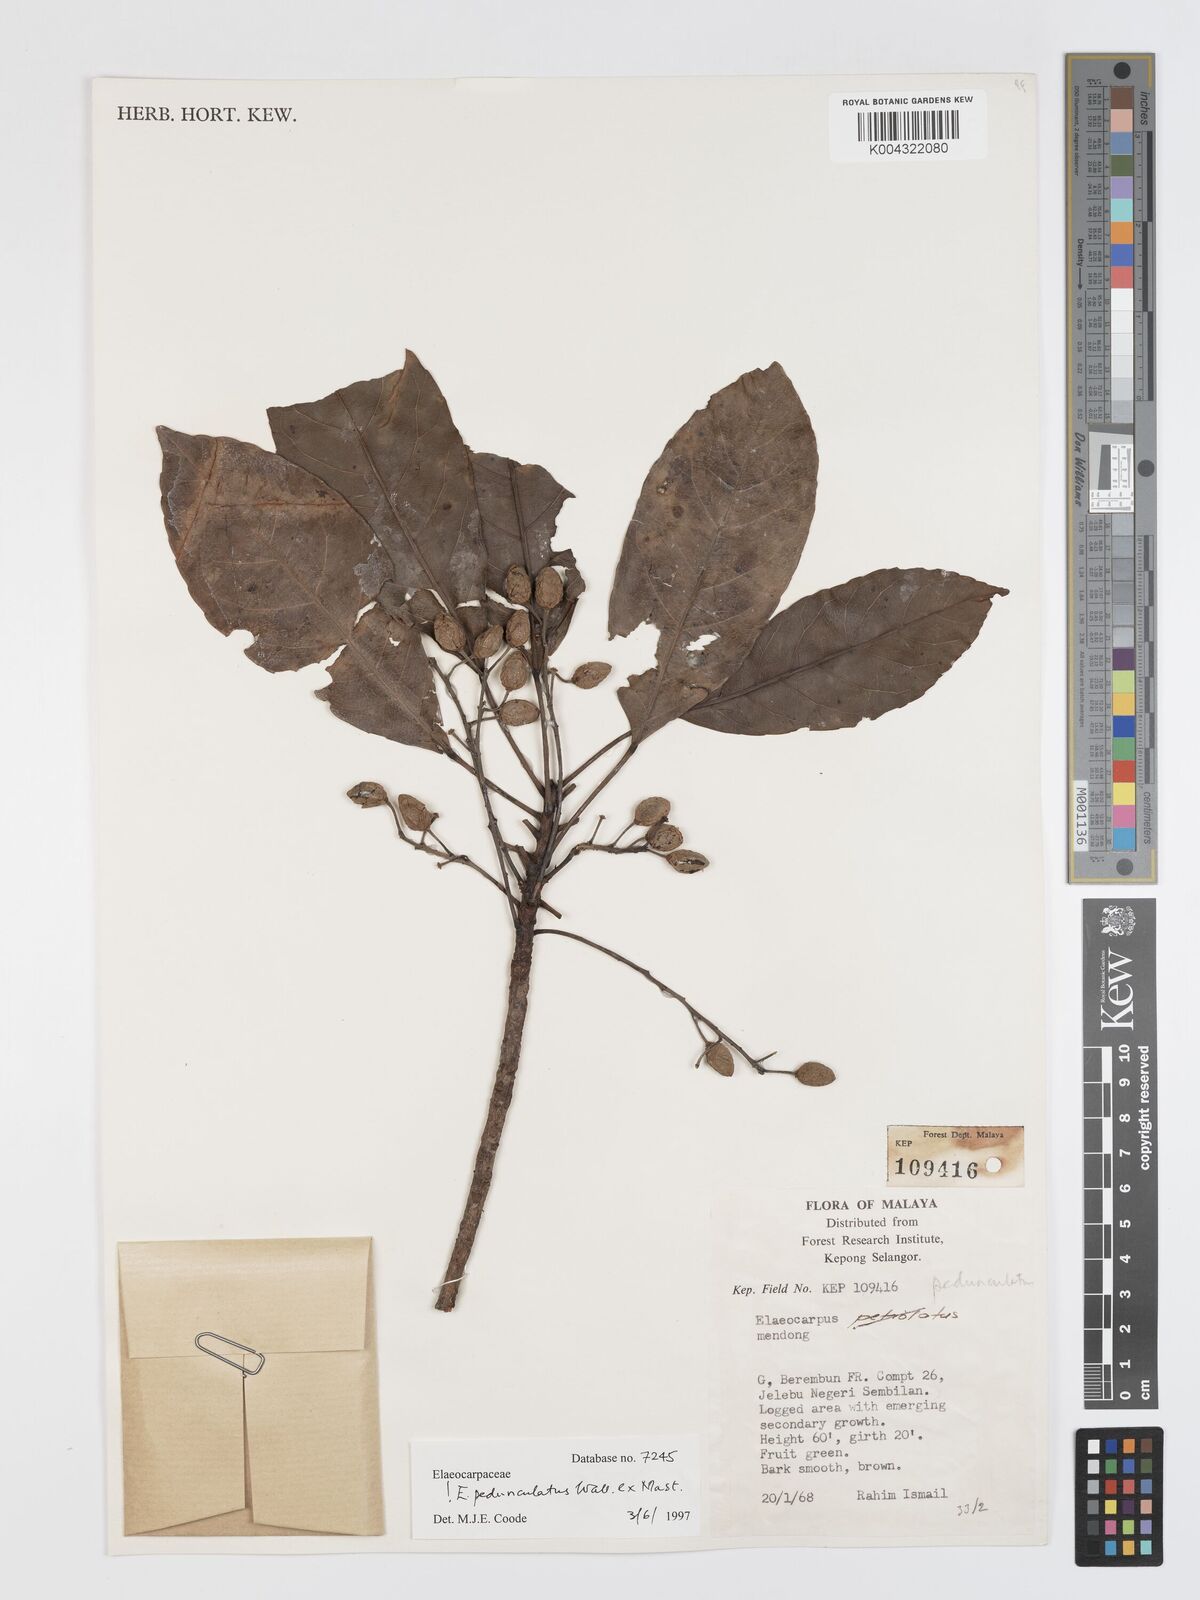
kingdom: Plantae
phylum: Tracheophyta
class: Magnoliopsida
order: Oxalidales
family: Elaeocarpaceae
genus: Elaeocarpus
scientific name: Elaeocarpus pedunculatus
